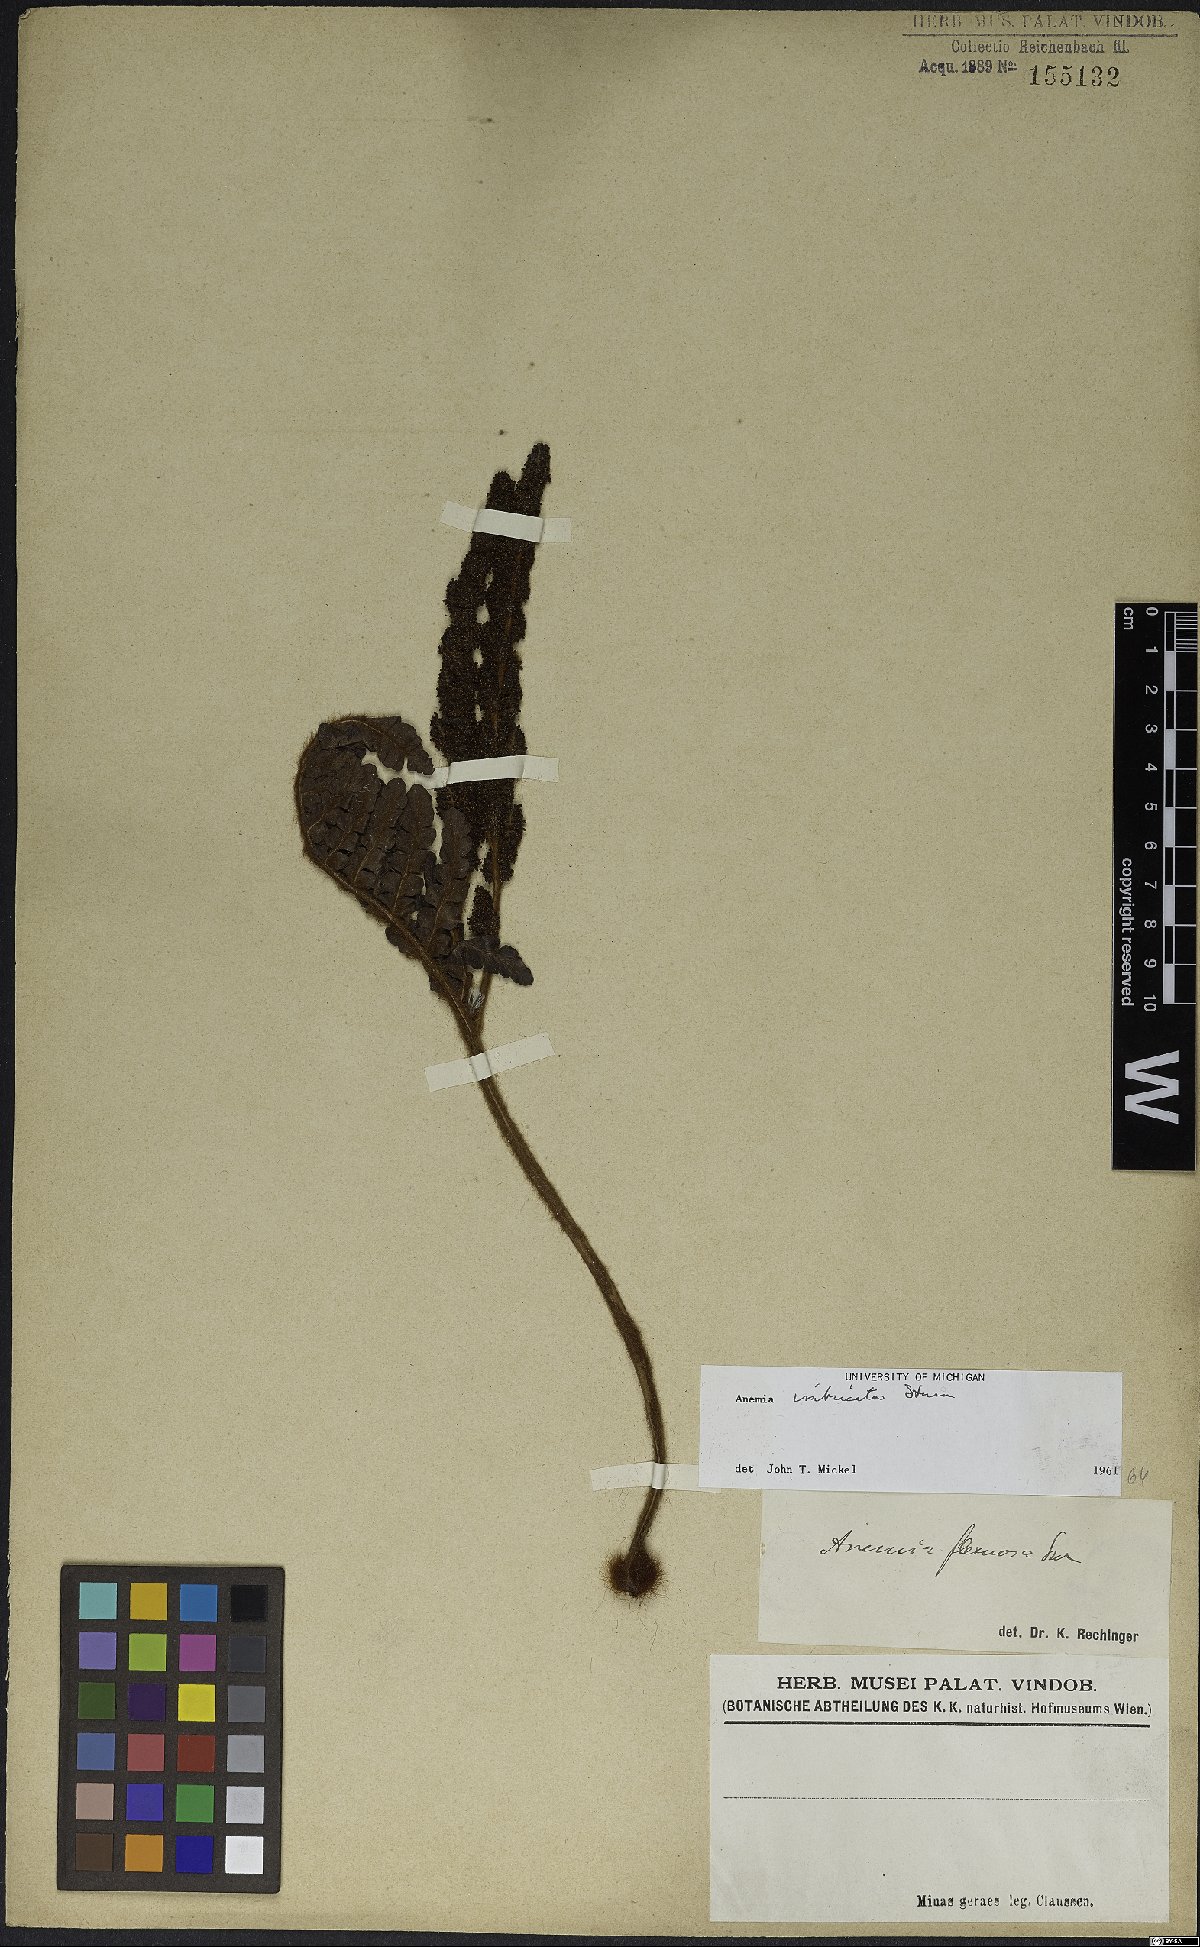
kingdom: Plantae
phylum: Tracheophyta
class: Polypodiopsida
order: Schizaeales
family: Anemiaceae
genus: Anemia
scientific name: Anemia imbricata
